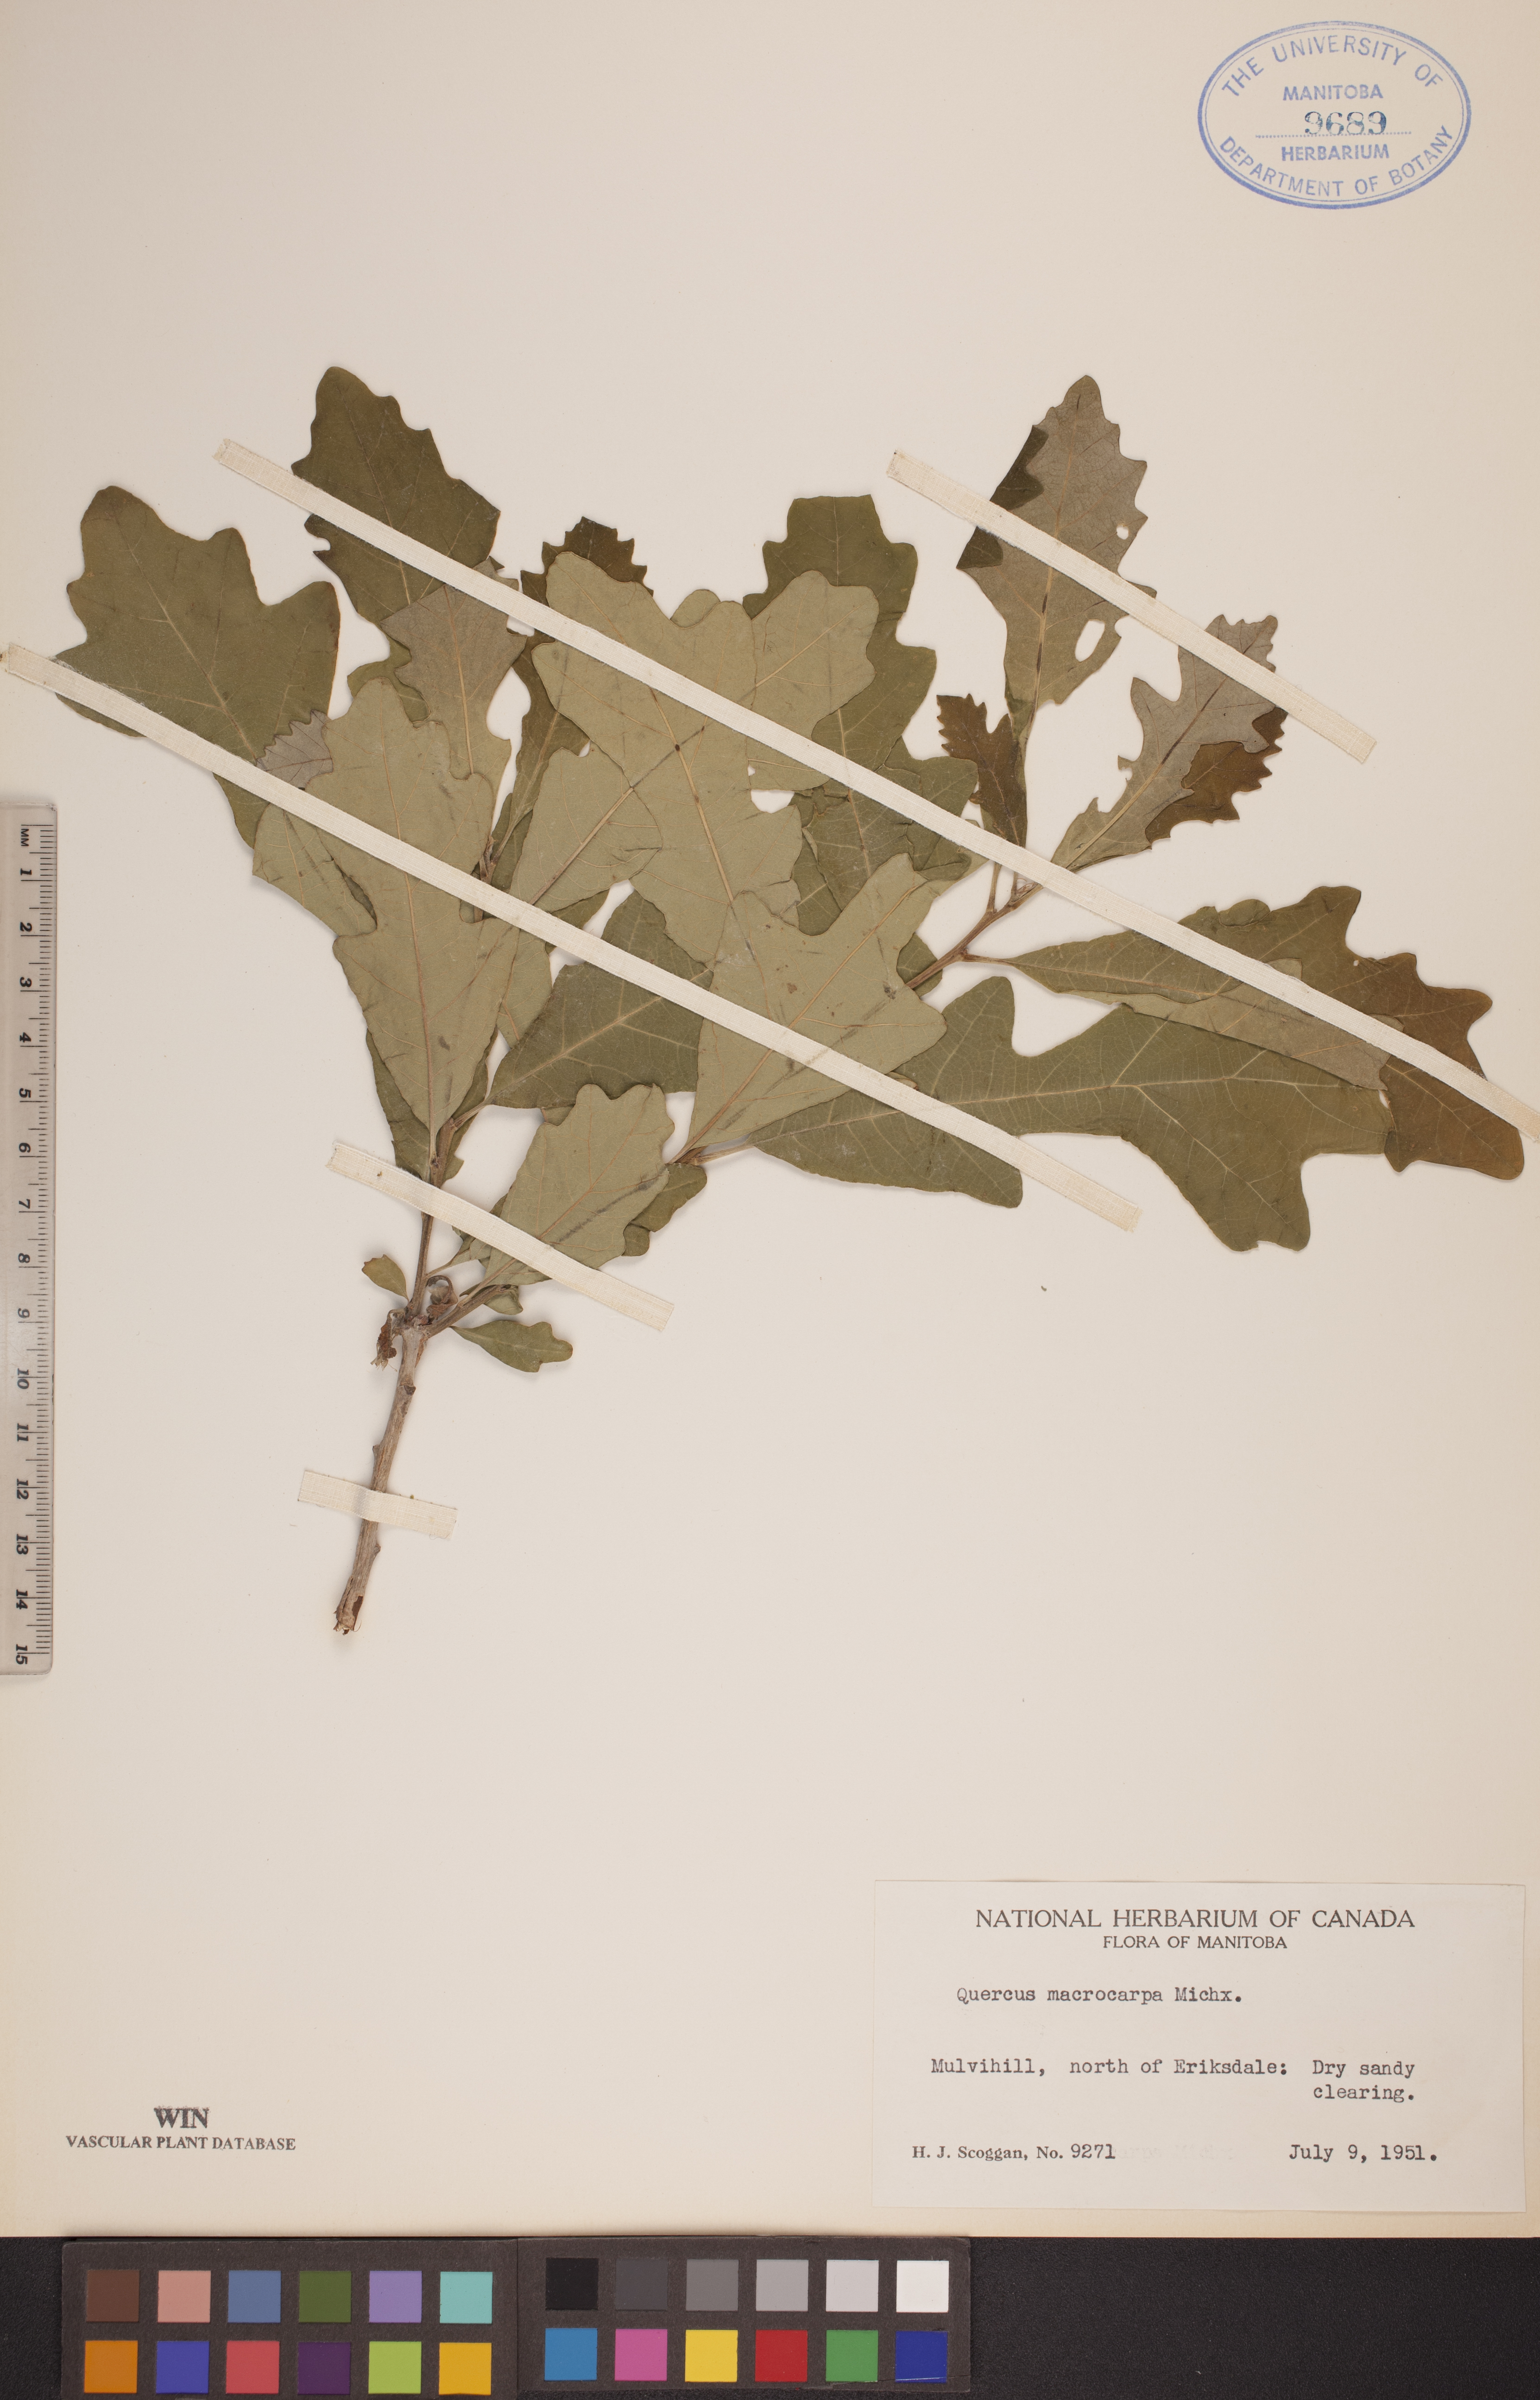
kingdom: Plantae
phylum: Tracheophyta
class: Magnoliopsida
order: Fagales
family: Fagaceae
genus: Quercus
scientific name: Quercus macrocarpa
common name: Bur oak
